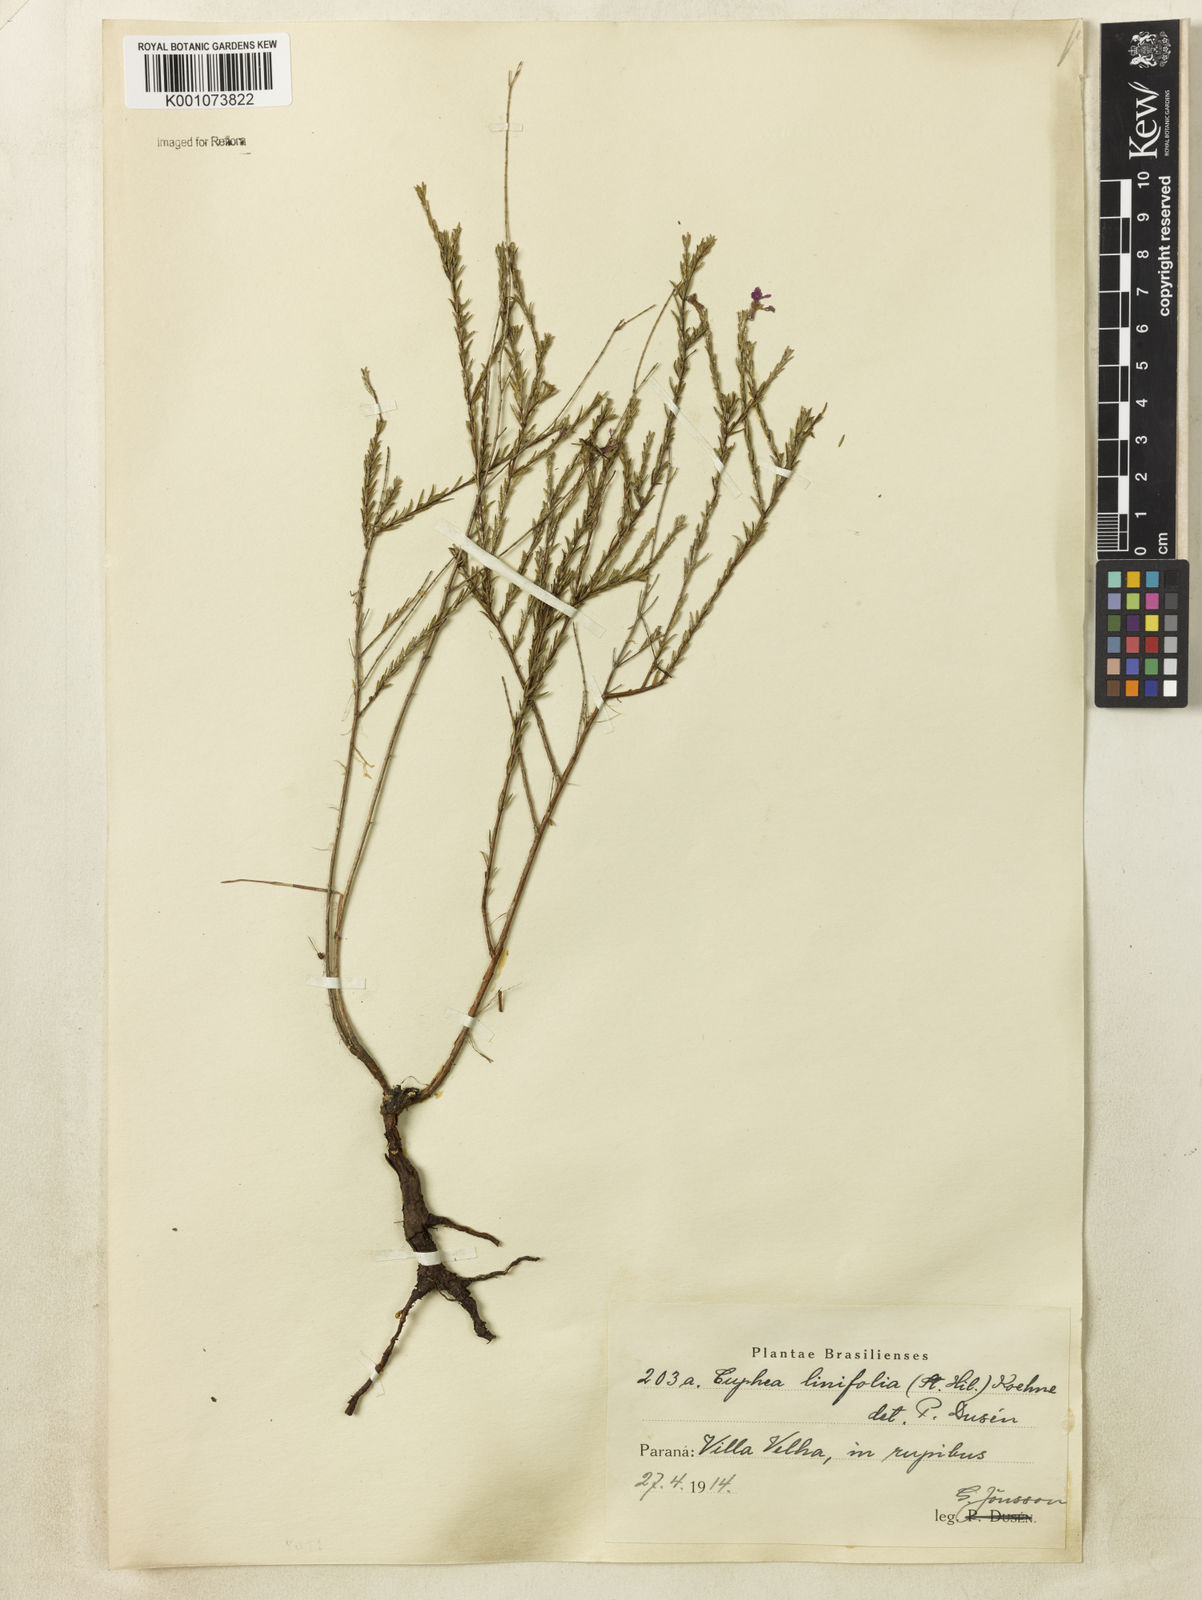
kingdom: Plantae
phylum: Tracheophyta
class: Magnoliopsida
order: Myrtales
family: Lythraceae
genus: Cuphea
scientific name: Cuphea linifolia
